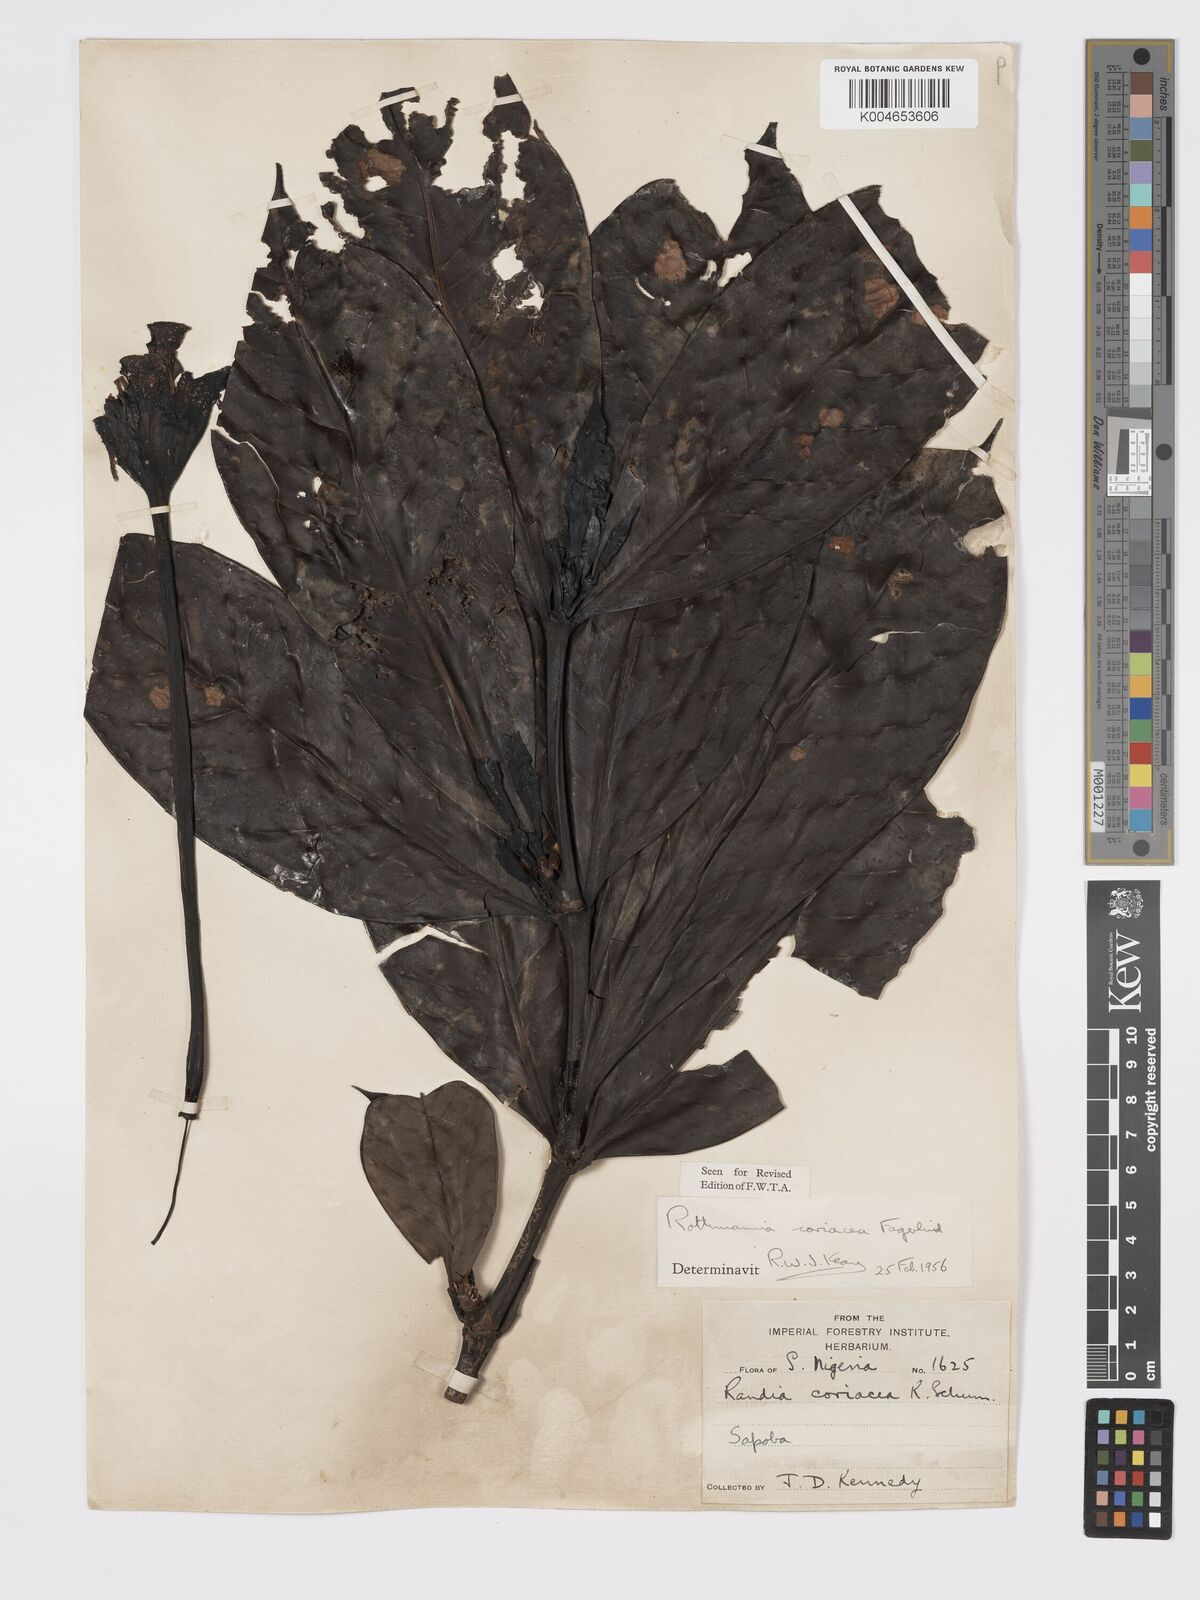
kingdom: Plantae
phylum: Tracheophyta
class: Magnoliopsida
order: Gentianales
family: Rubiaceae
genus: Rothmannia
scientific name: Rothmannia lujae
